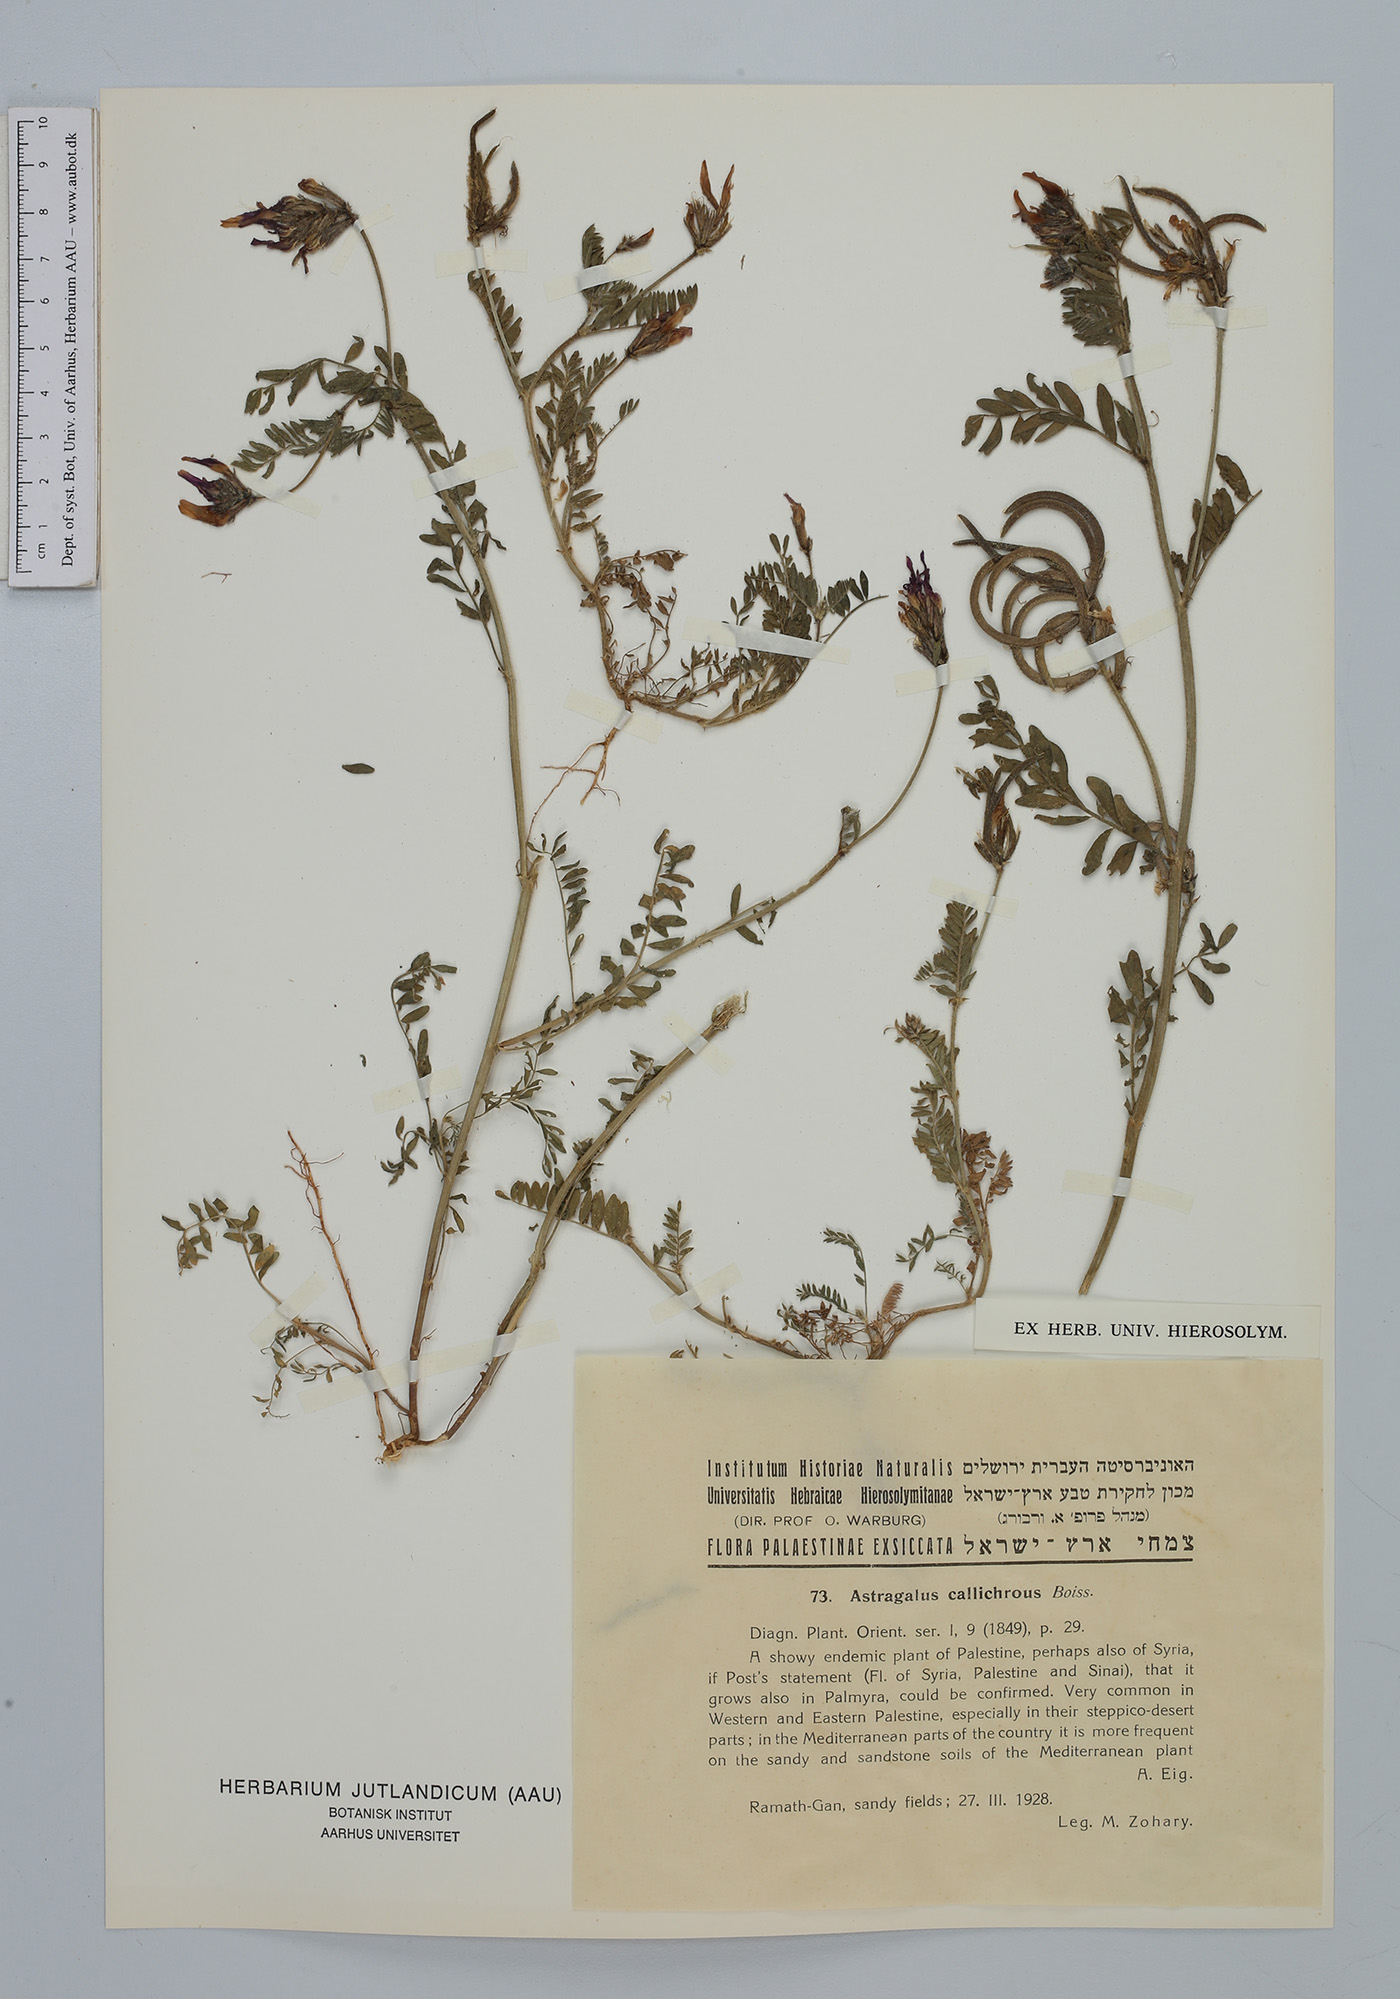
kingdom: Plantae
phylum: Tracheophyta
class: Magnoliopsida
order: Fabales
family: Fabaceae
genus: Astragalus
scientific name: Astragalus callichrous
